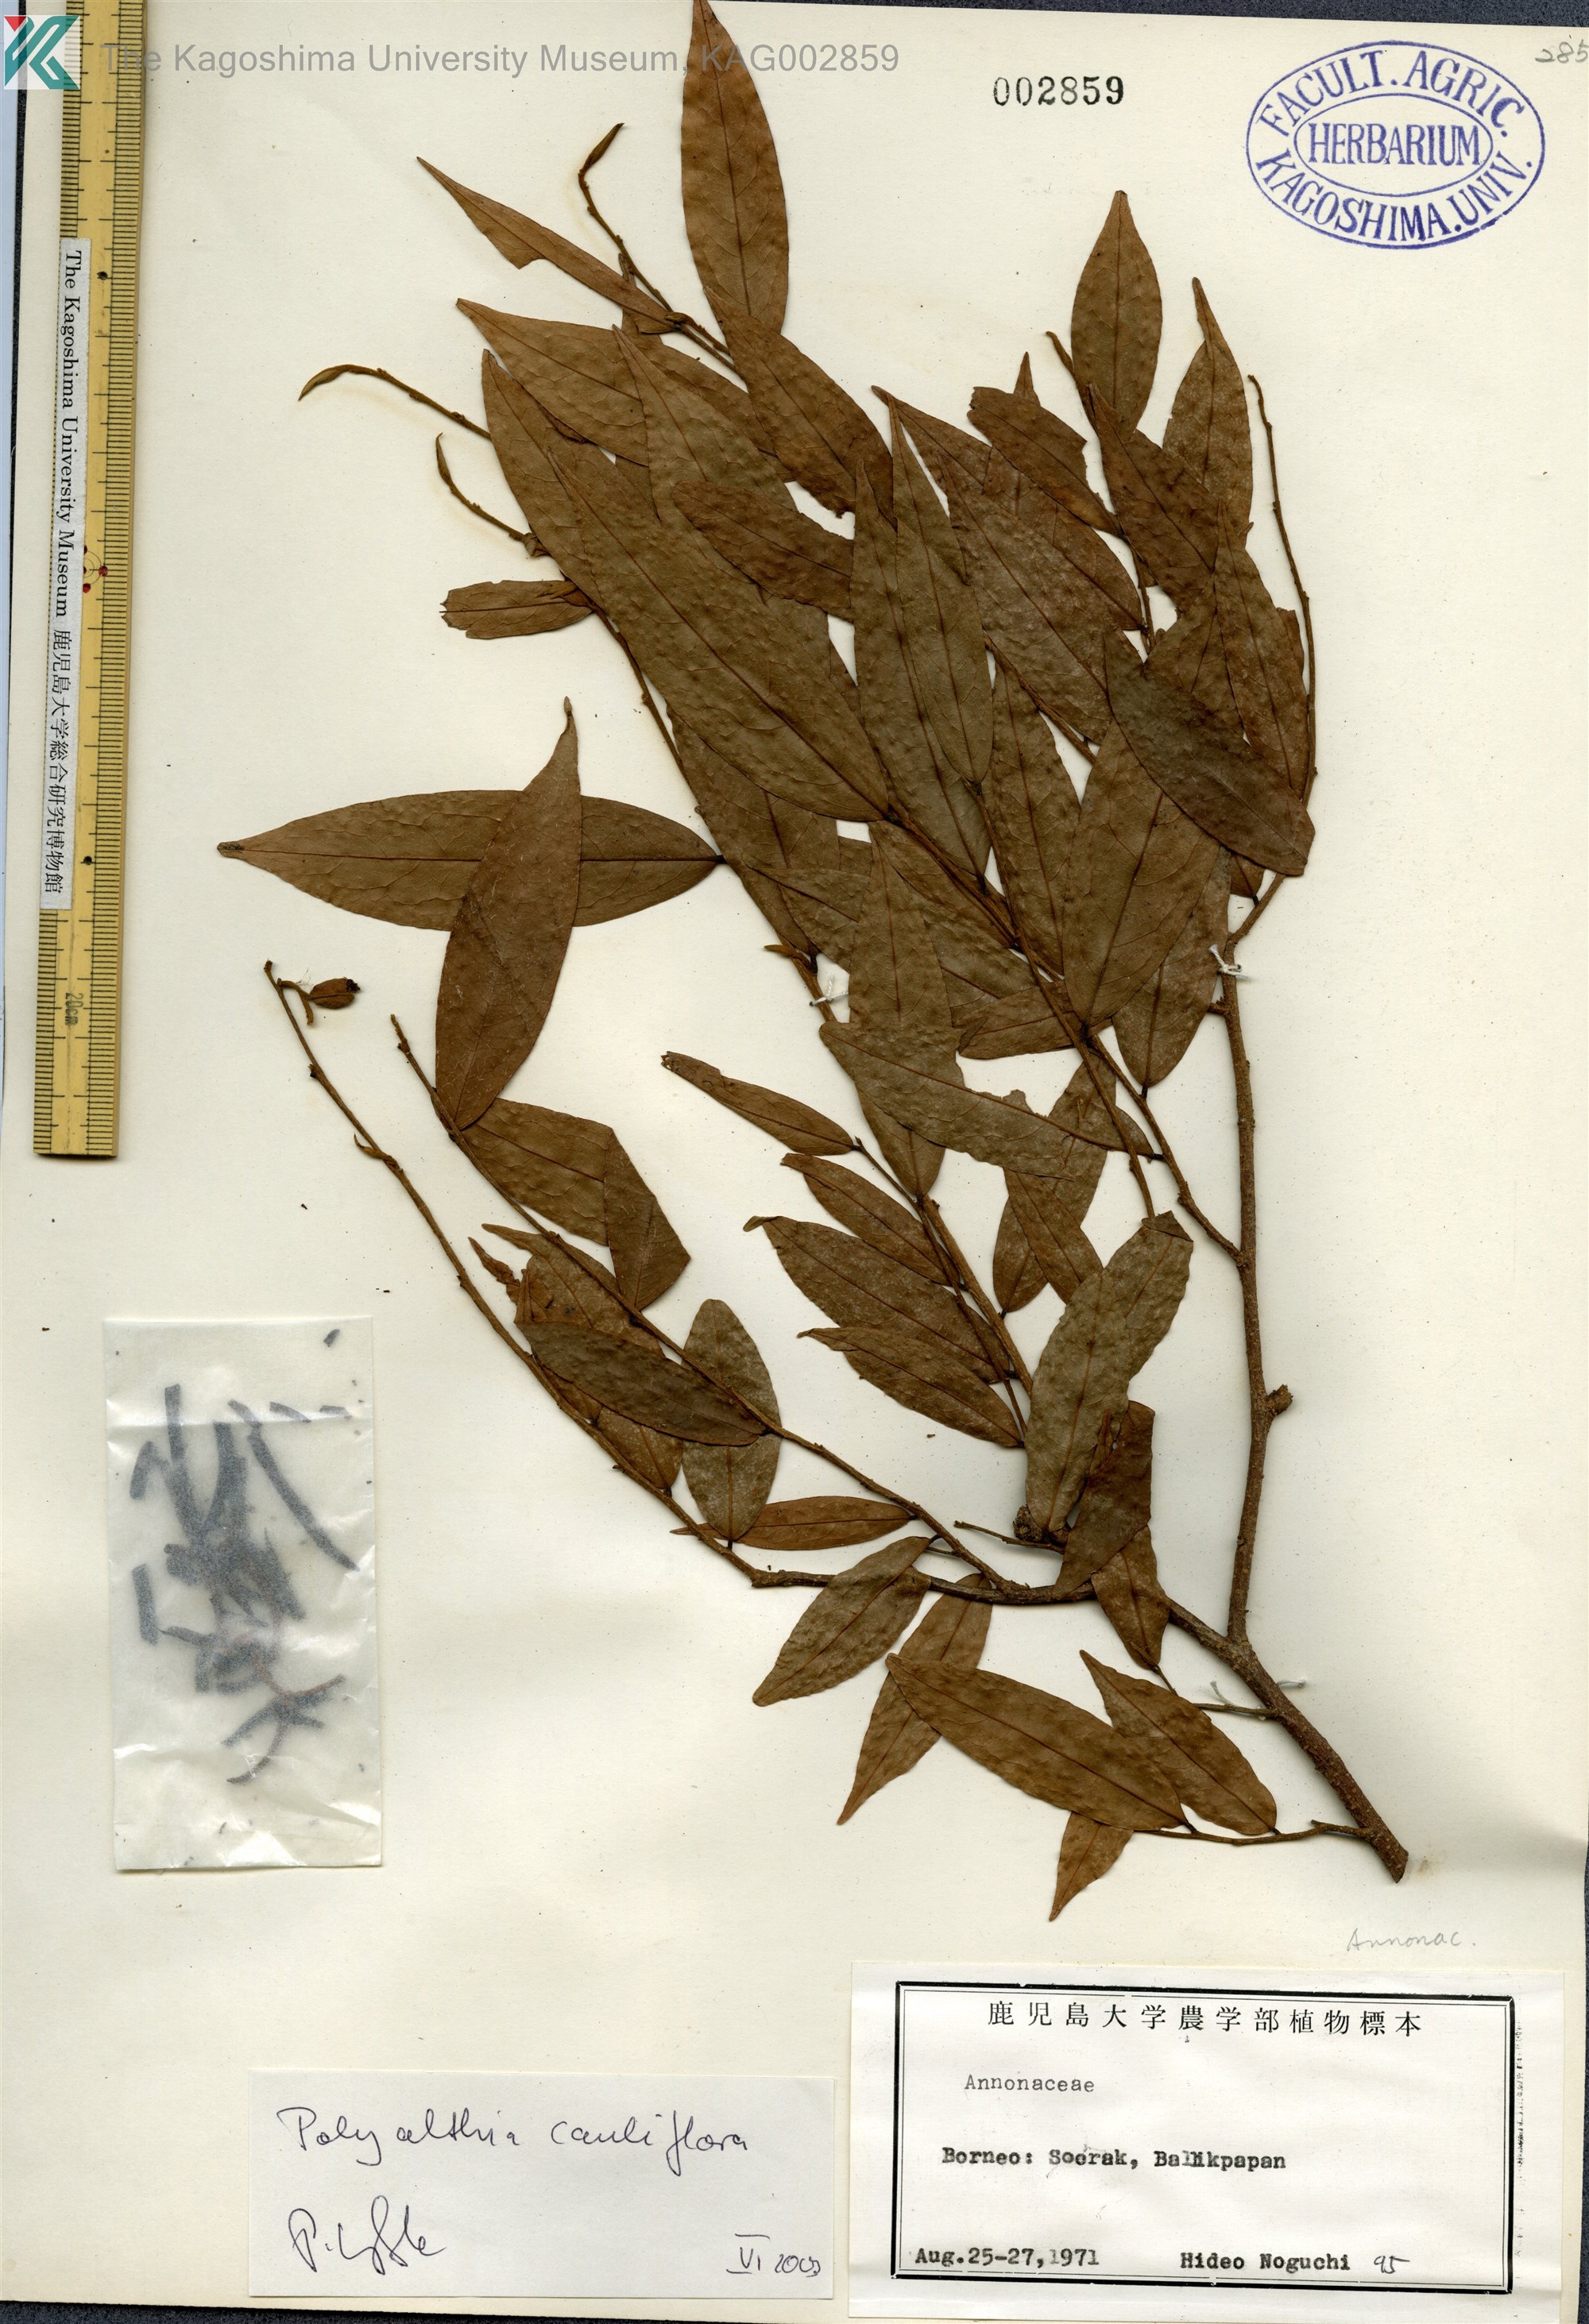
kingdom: Plantae
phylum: Tracheophyta
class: Magnoliopsida
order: Magnoliales
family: Annonaceae
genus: Polyalthia
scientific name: Polyalthia cauliflora
